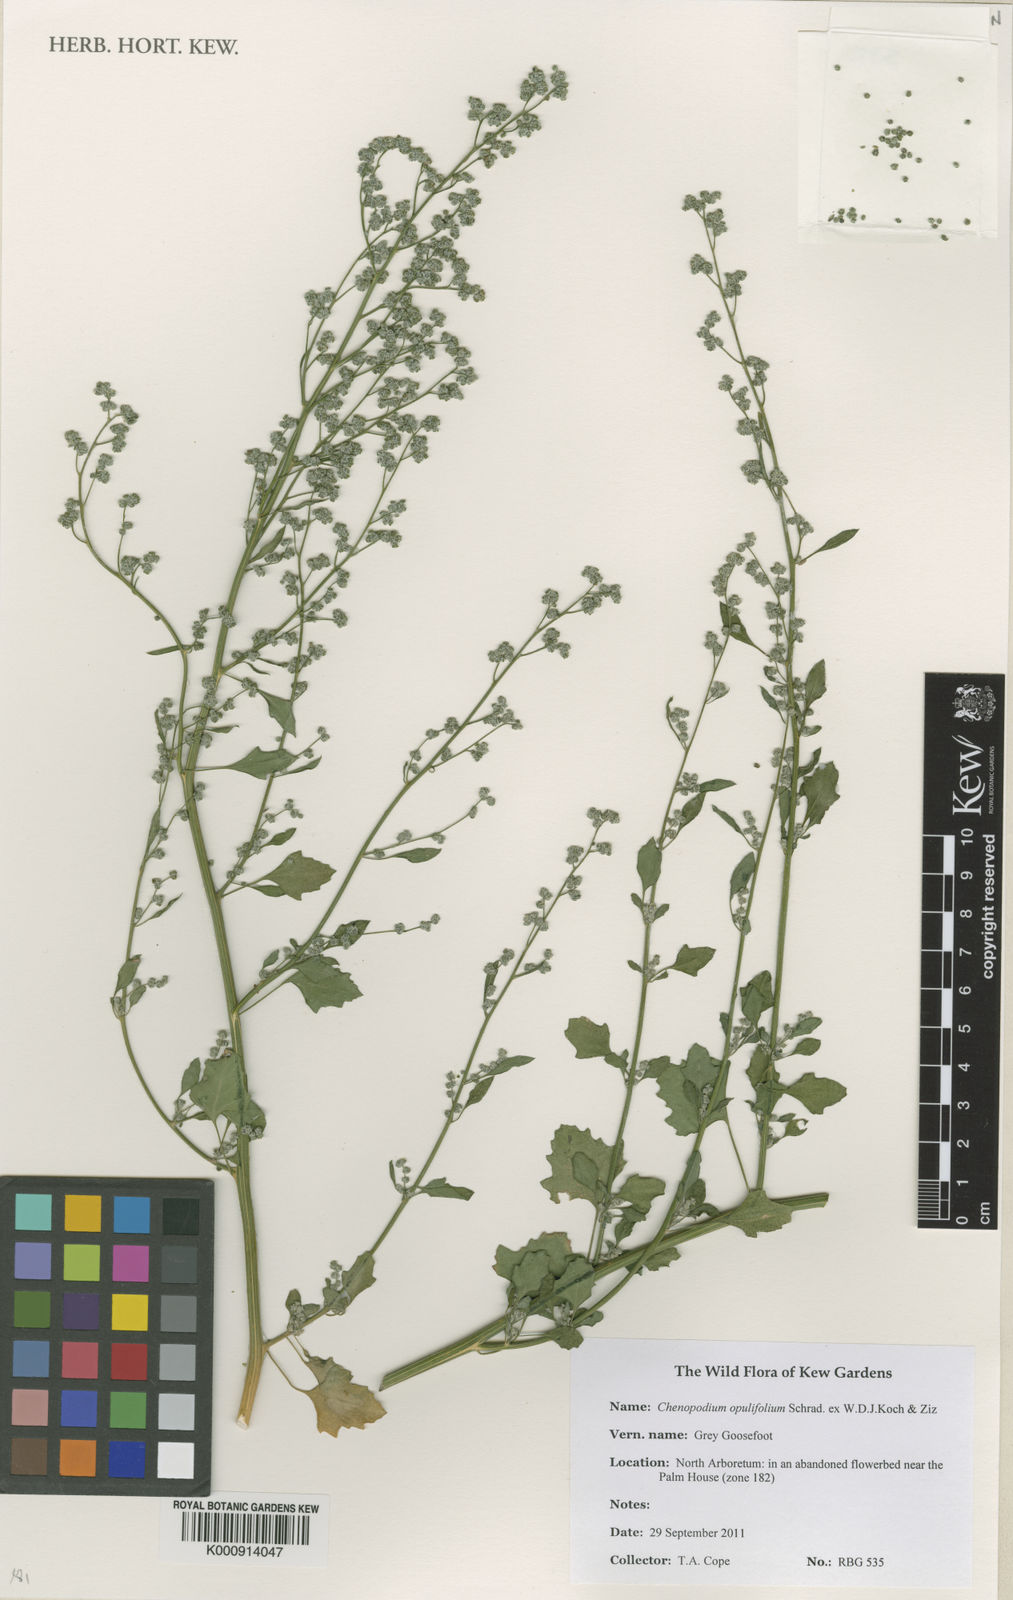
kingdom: Plantae
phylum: Tracheophyta
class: Magnoliopsida
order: Caryophyllales
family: Amaranthaceae
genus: Chenopodium
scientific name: Chenopodium opulifolium
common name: Grey goosefoot
